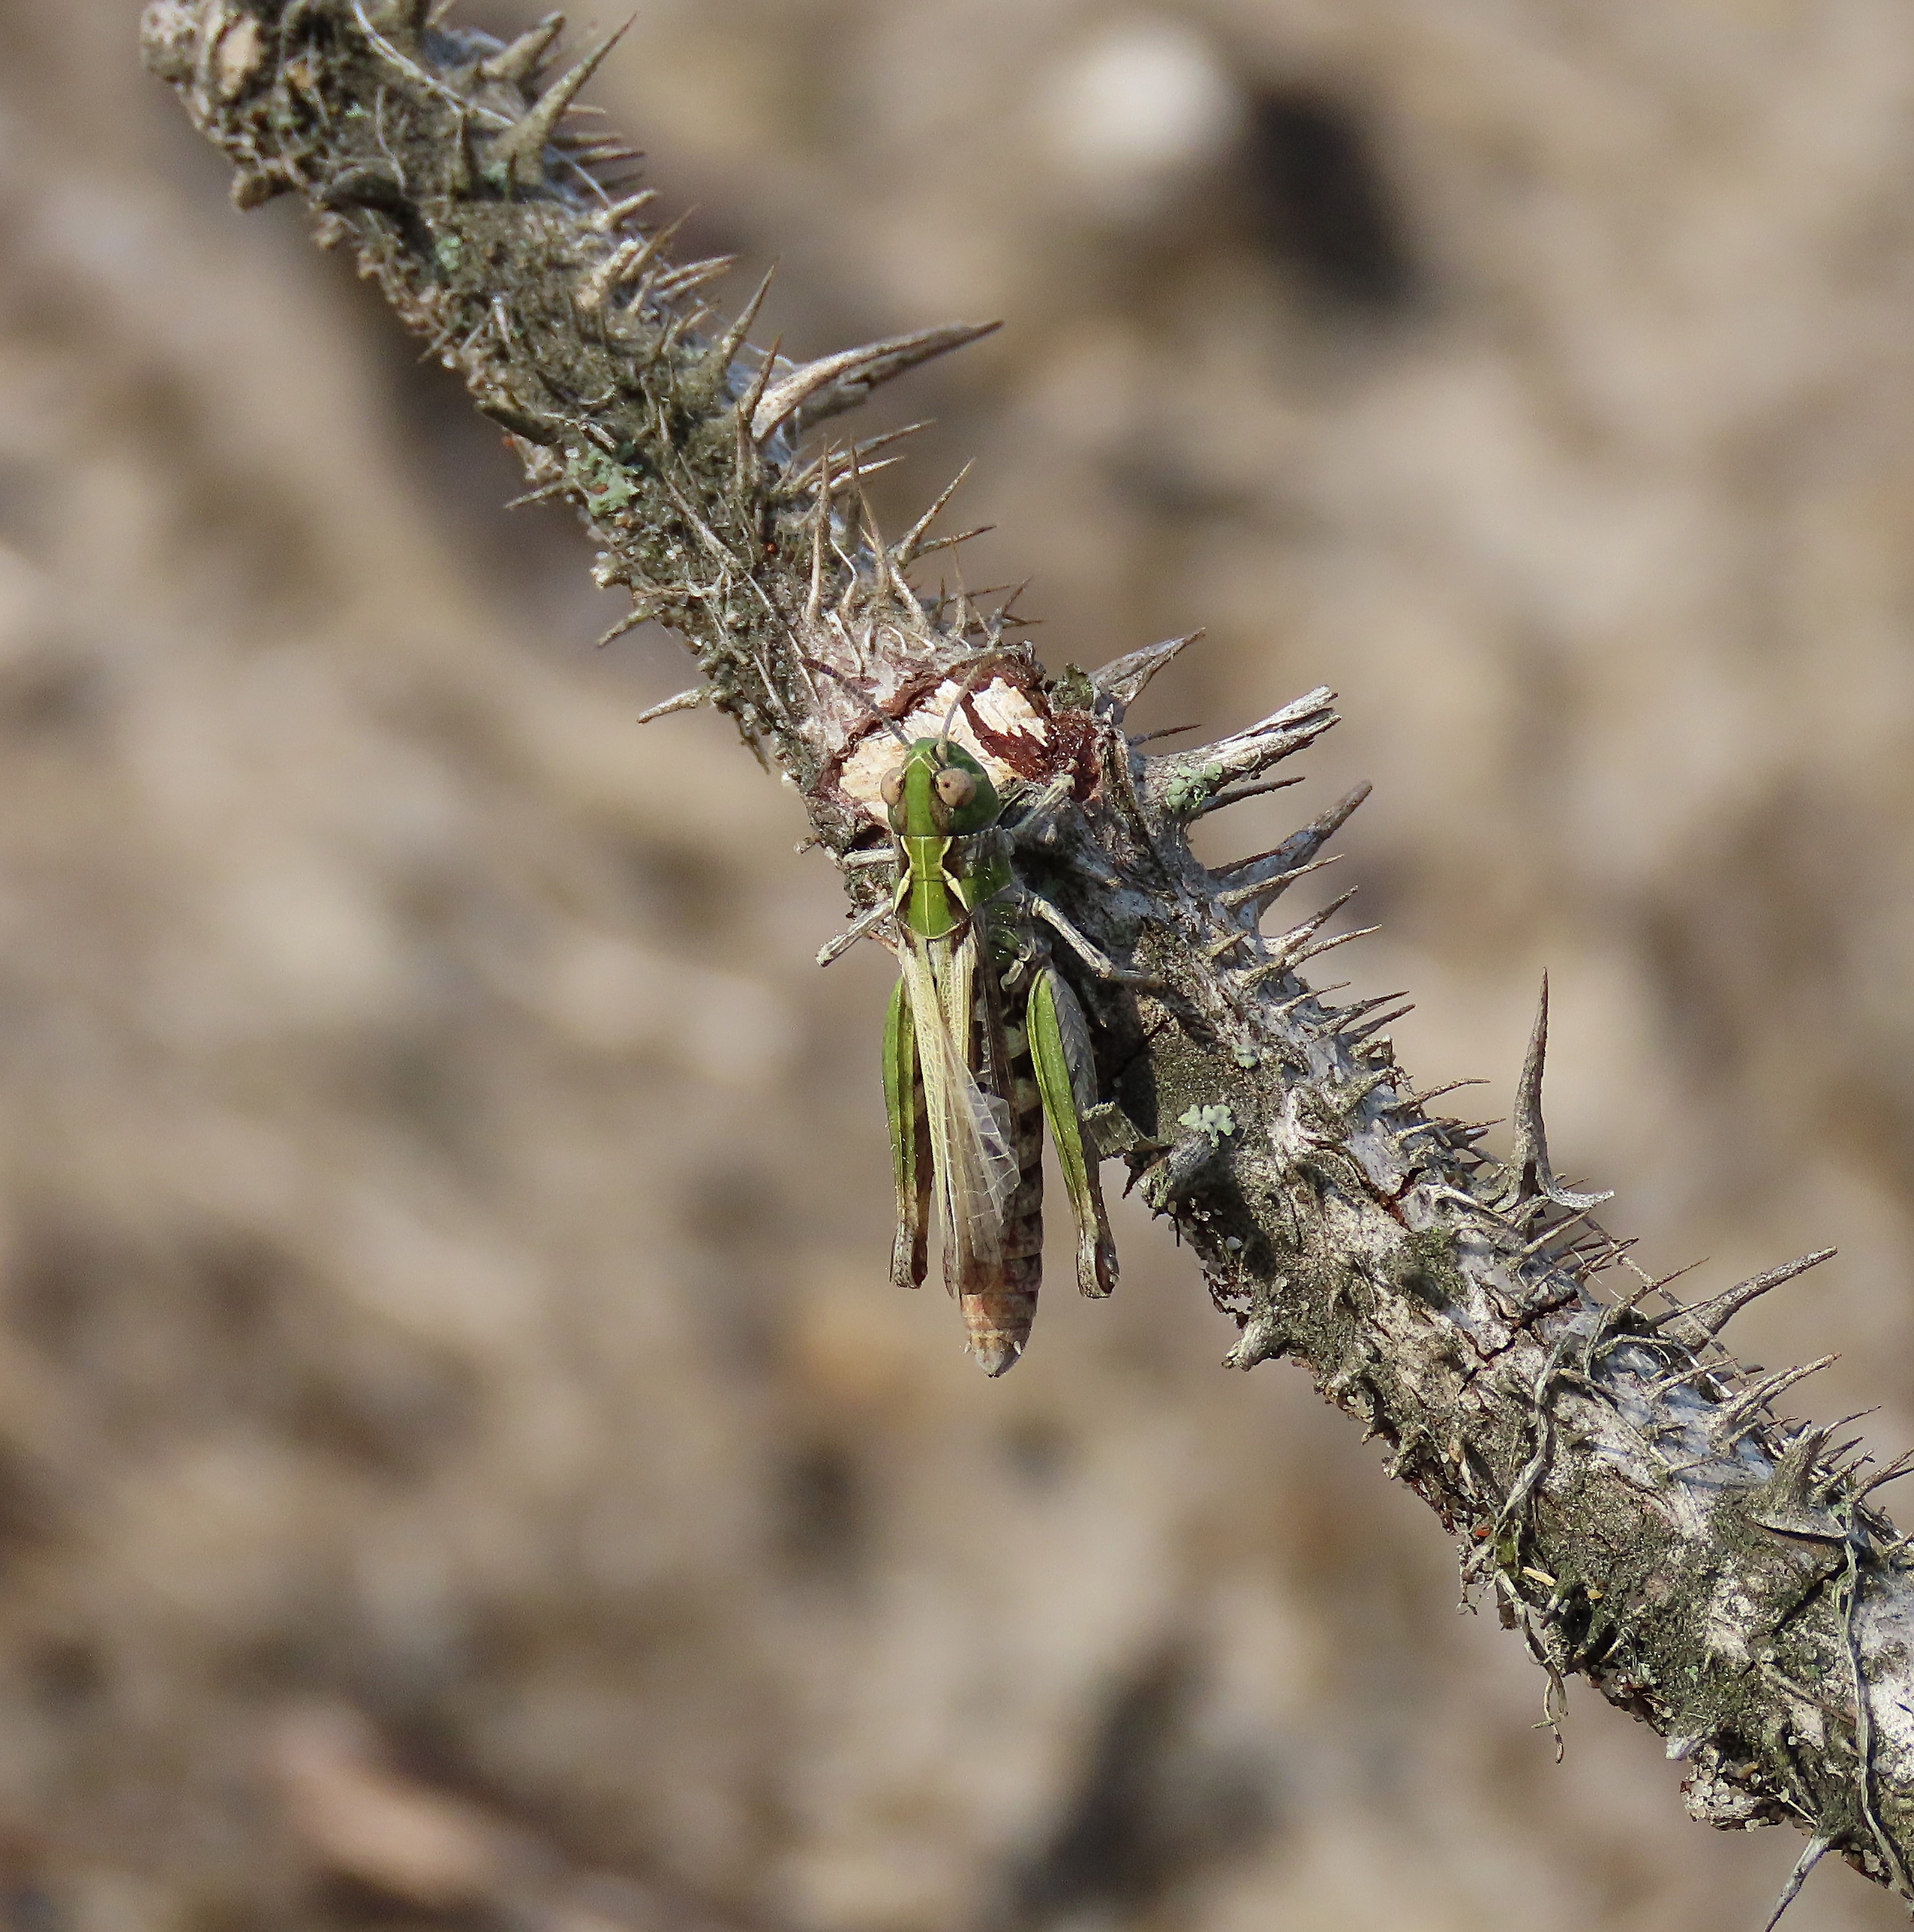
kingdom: Animalia
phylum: Arthropoda
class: Insecta
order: Orthoptera
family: Acrididae
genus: Myrmeleotettix
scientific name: Myrmeleotettix maculatus
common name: Køllegræshoppe
